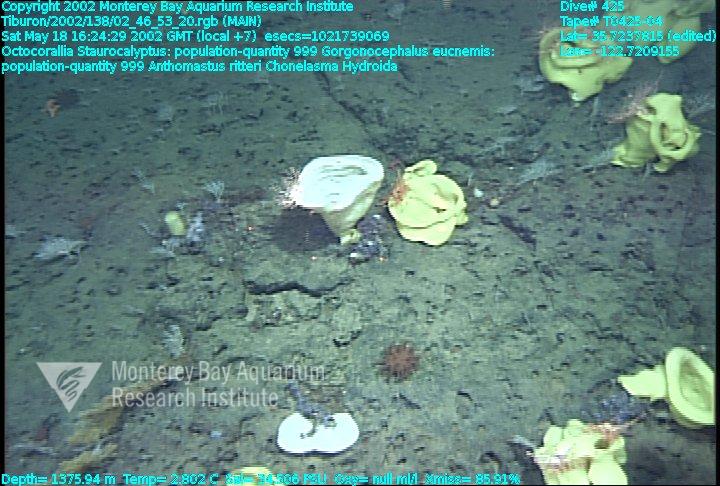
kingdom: Animalia
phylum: Porifera
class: Hexactinellida
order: Lyssacinosida
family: Rossellidae
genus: Staurocalyptus
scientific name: Staurocalyptus
